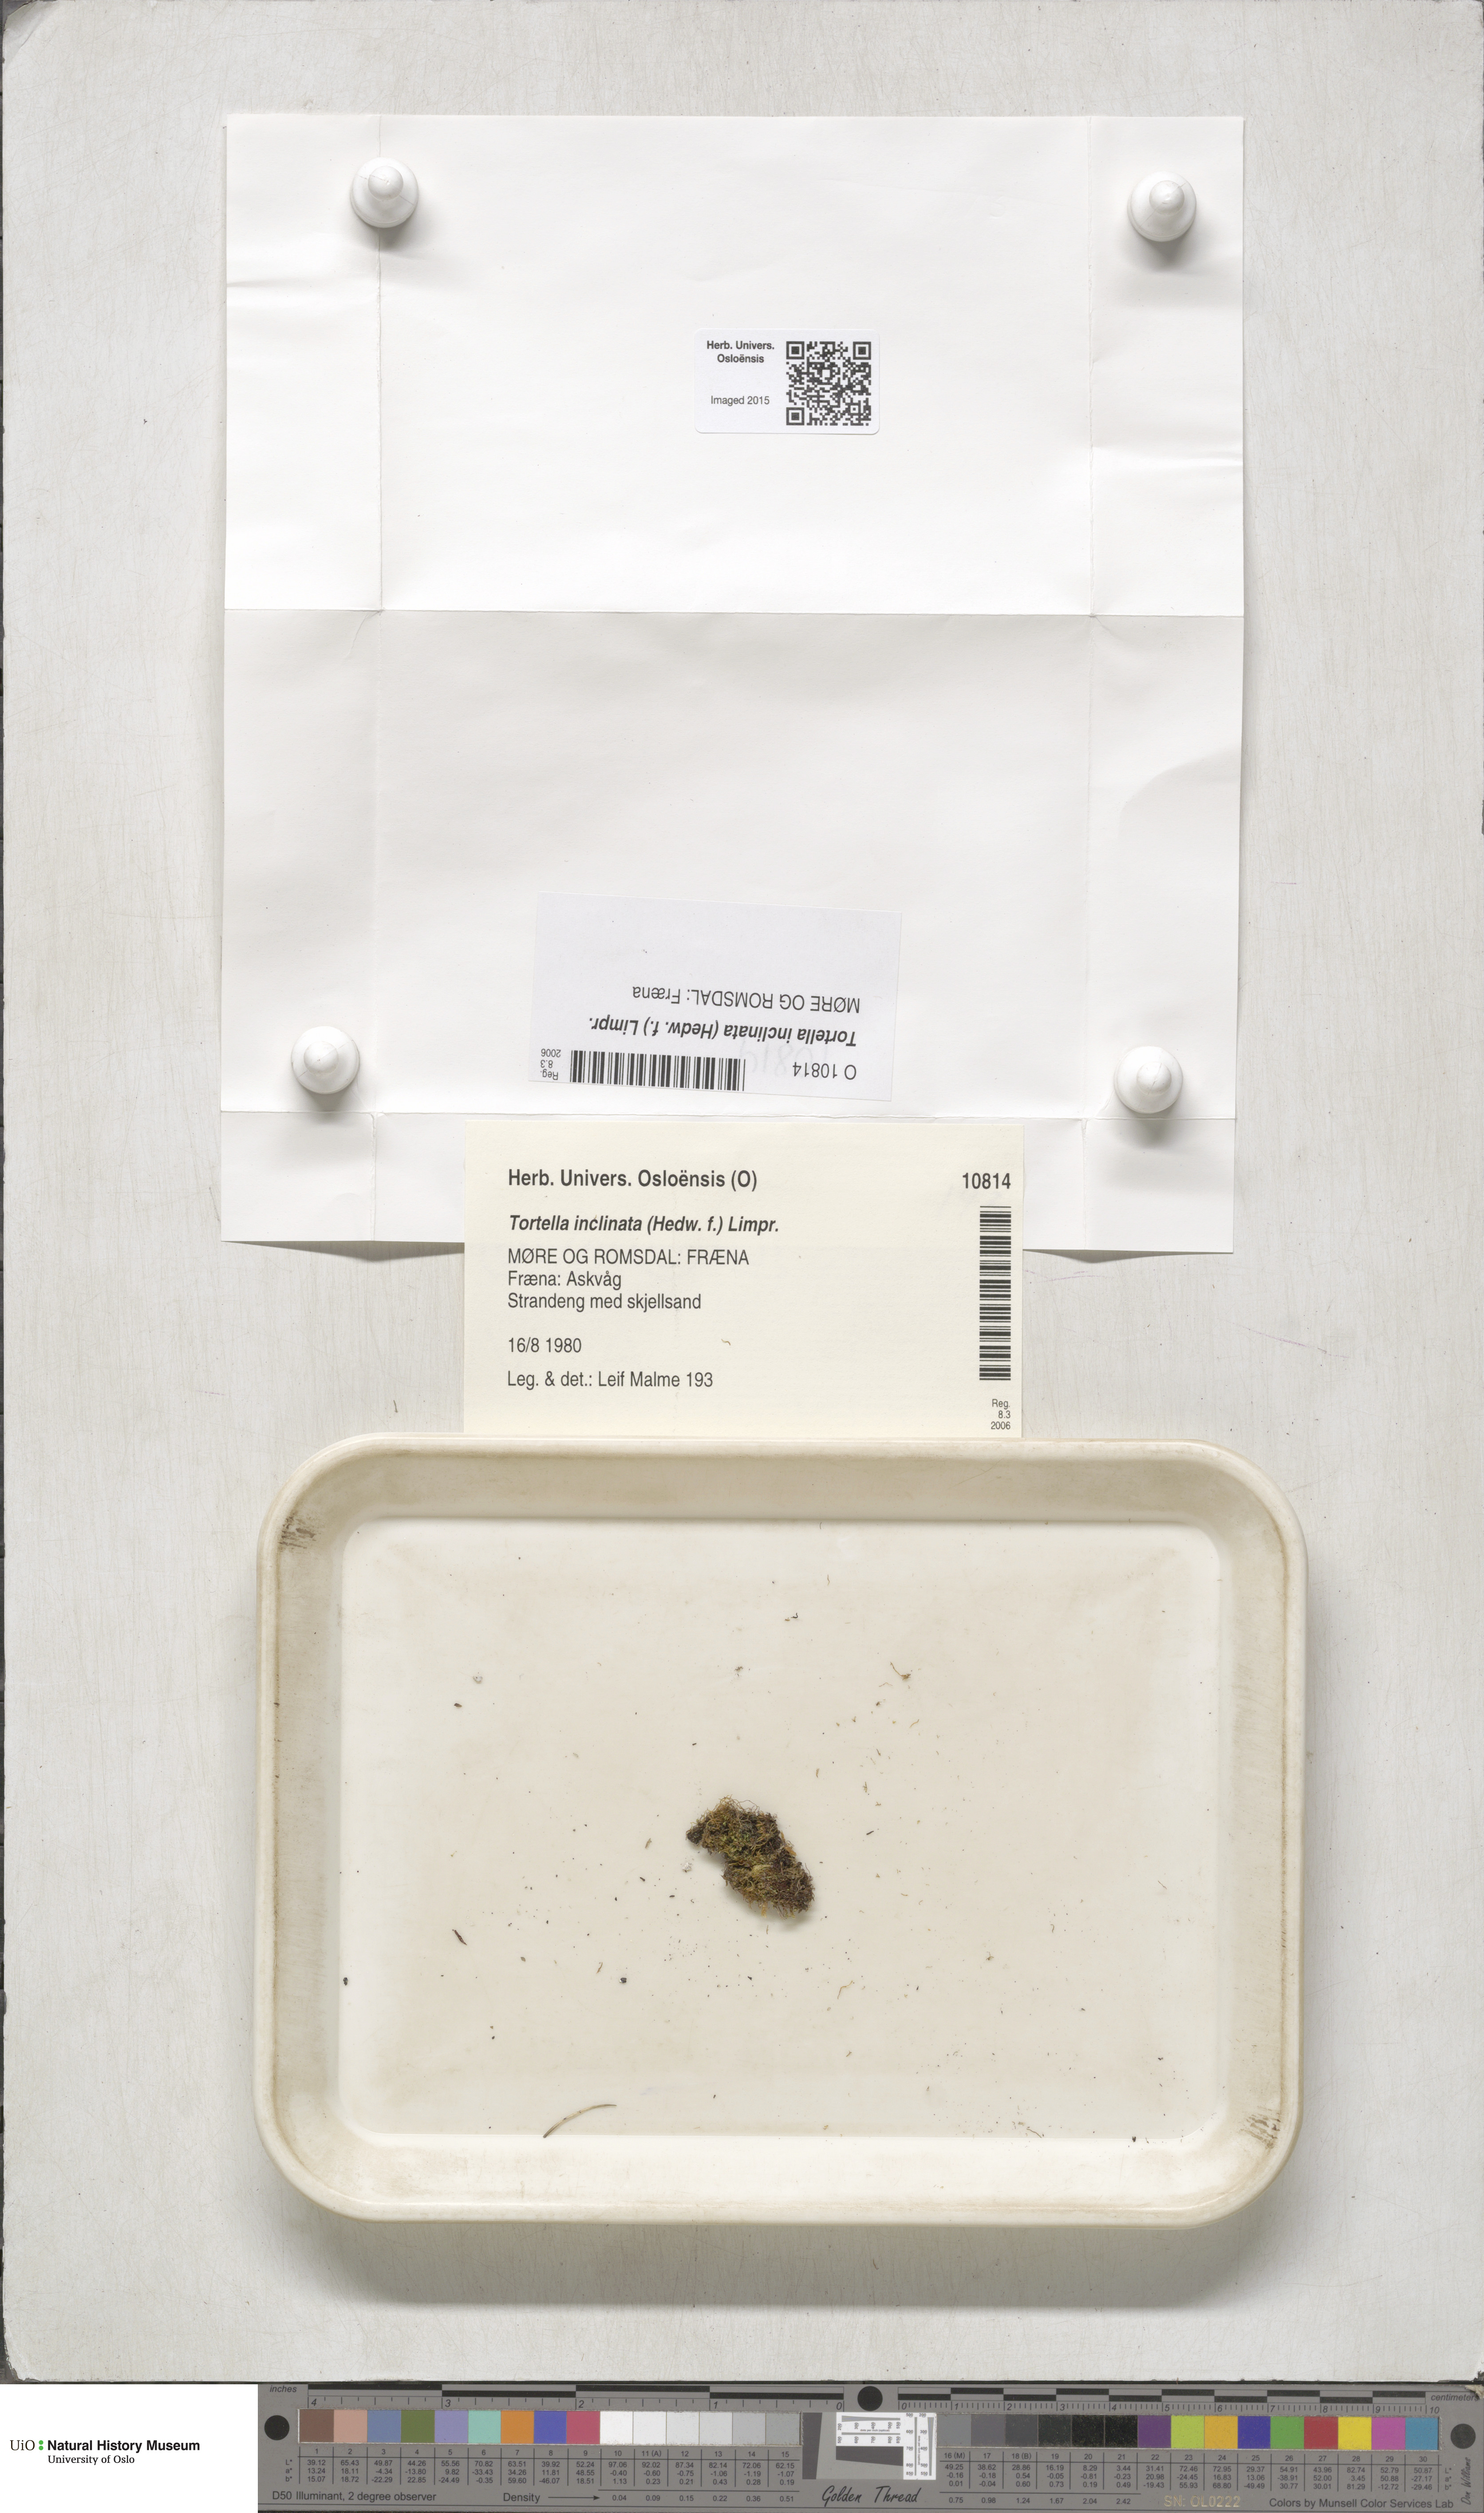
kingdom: Plantae
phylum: Bryophyta
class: Bryopsida
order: Pottiales
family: Pottiaceae
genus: Tortella
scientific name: Tortella inclinata
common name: Inclined twisted moss
